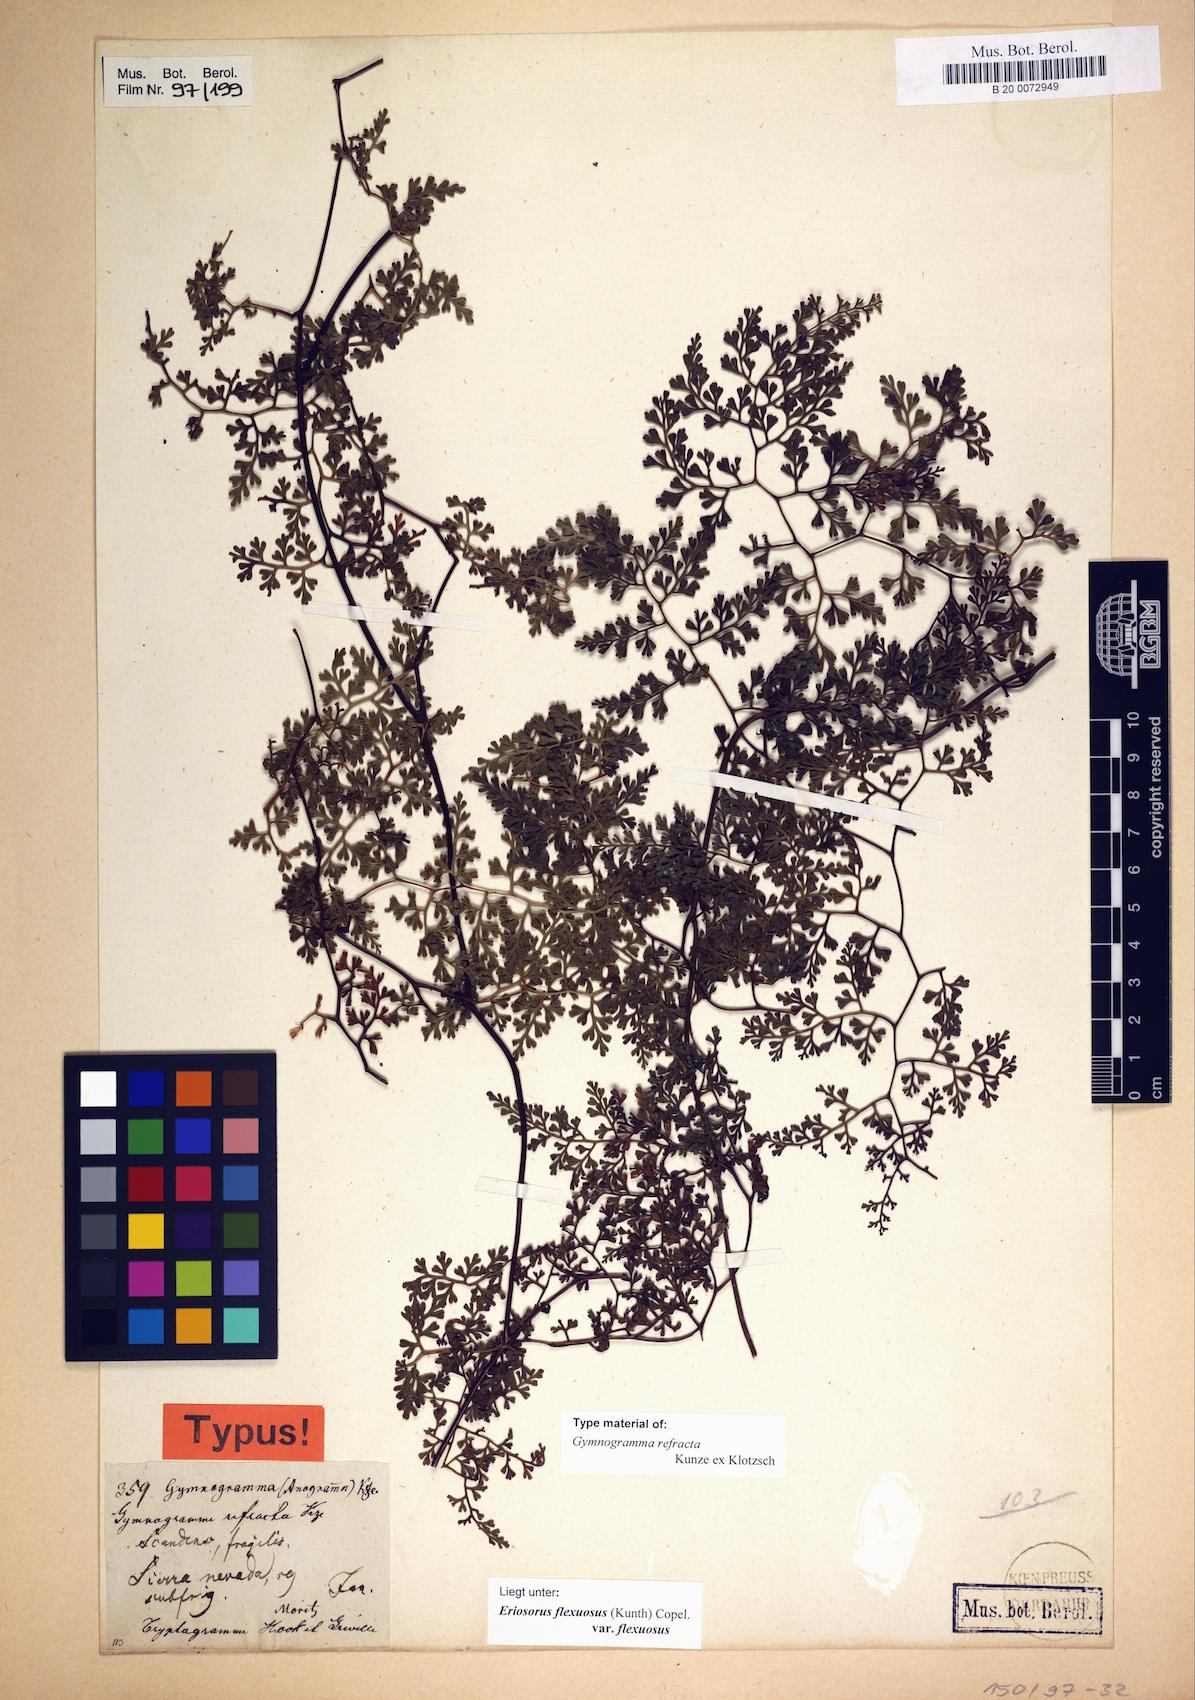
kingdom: Plantae
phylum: Tracheophyta
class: Polypodiopsida
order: Polypodiales
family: Pteridaceae
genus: Jamesonia
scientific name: Jamesonia flexuosa
